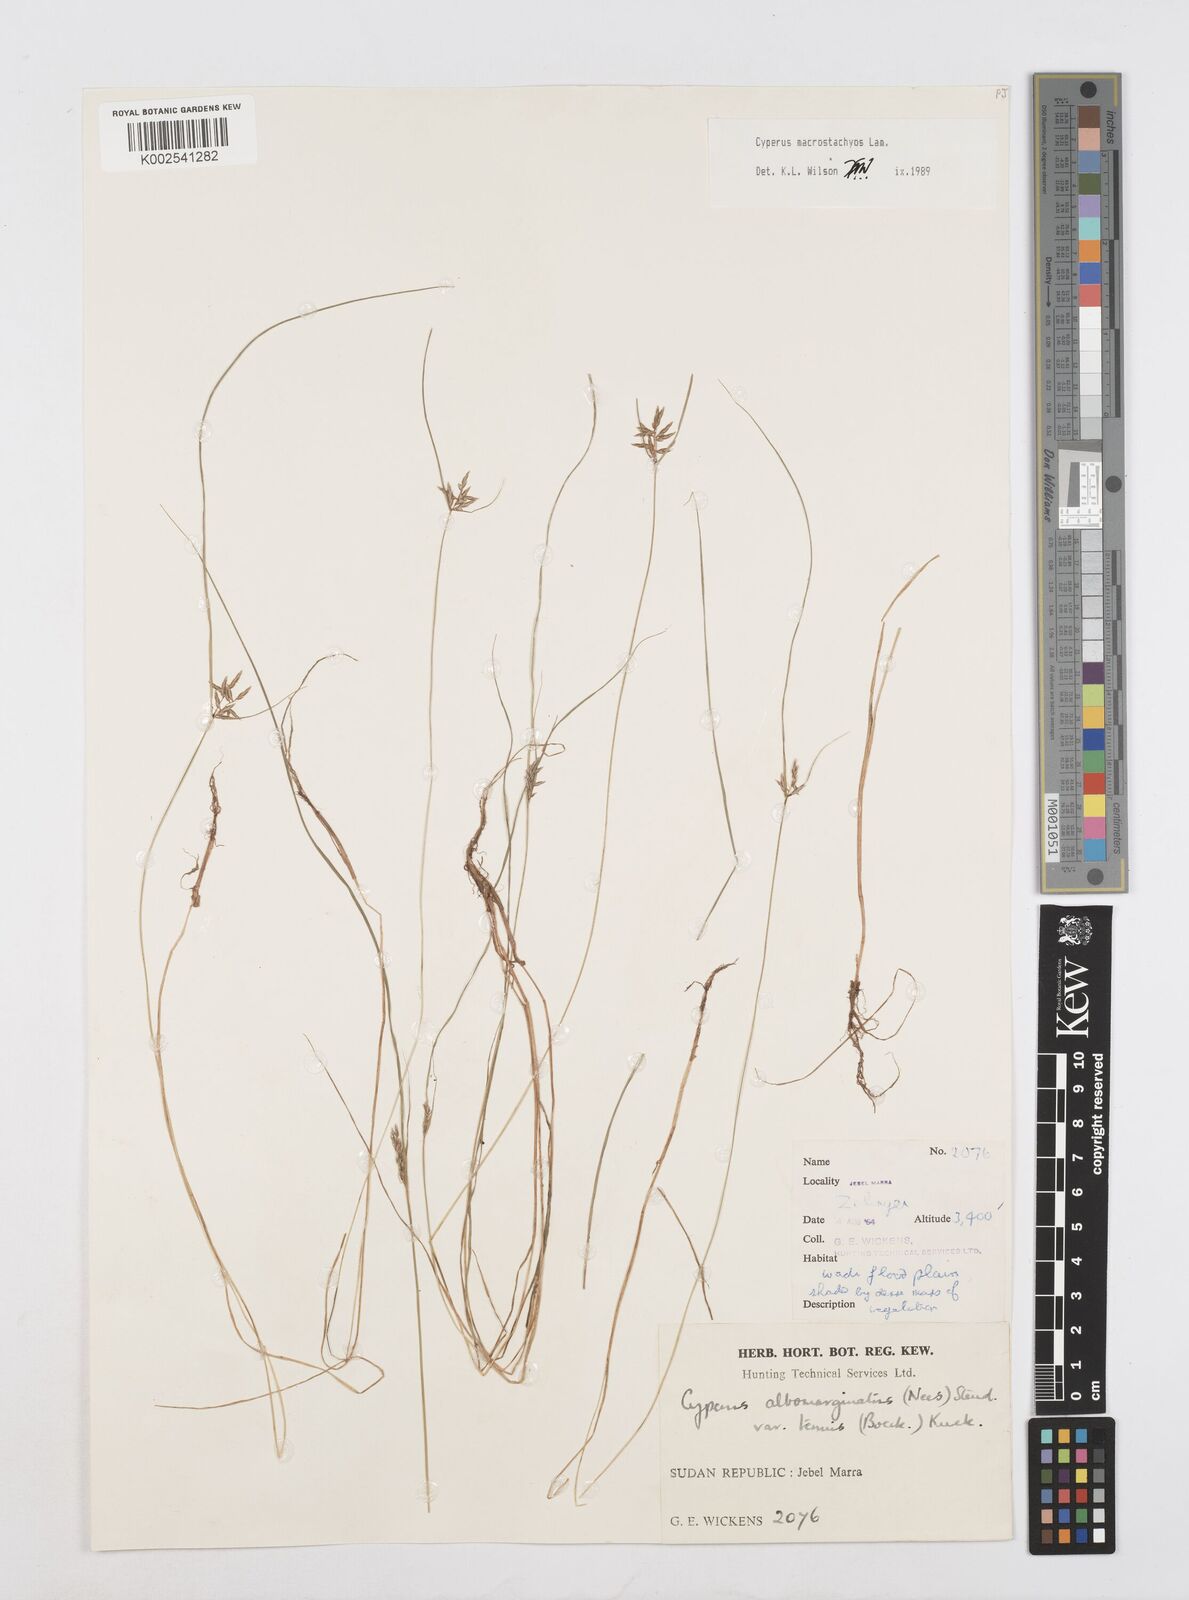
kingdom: Plantae
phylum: Tracheophyta
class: Liliopsida
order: Poales
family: Cyperaceae
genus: Cyperus
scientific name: Cyperus macrostachyos
